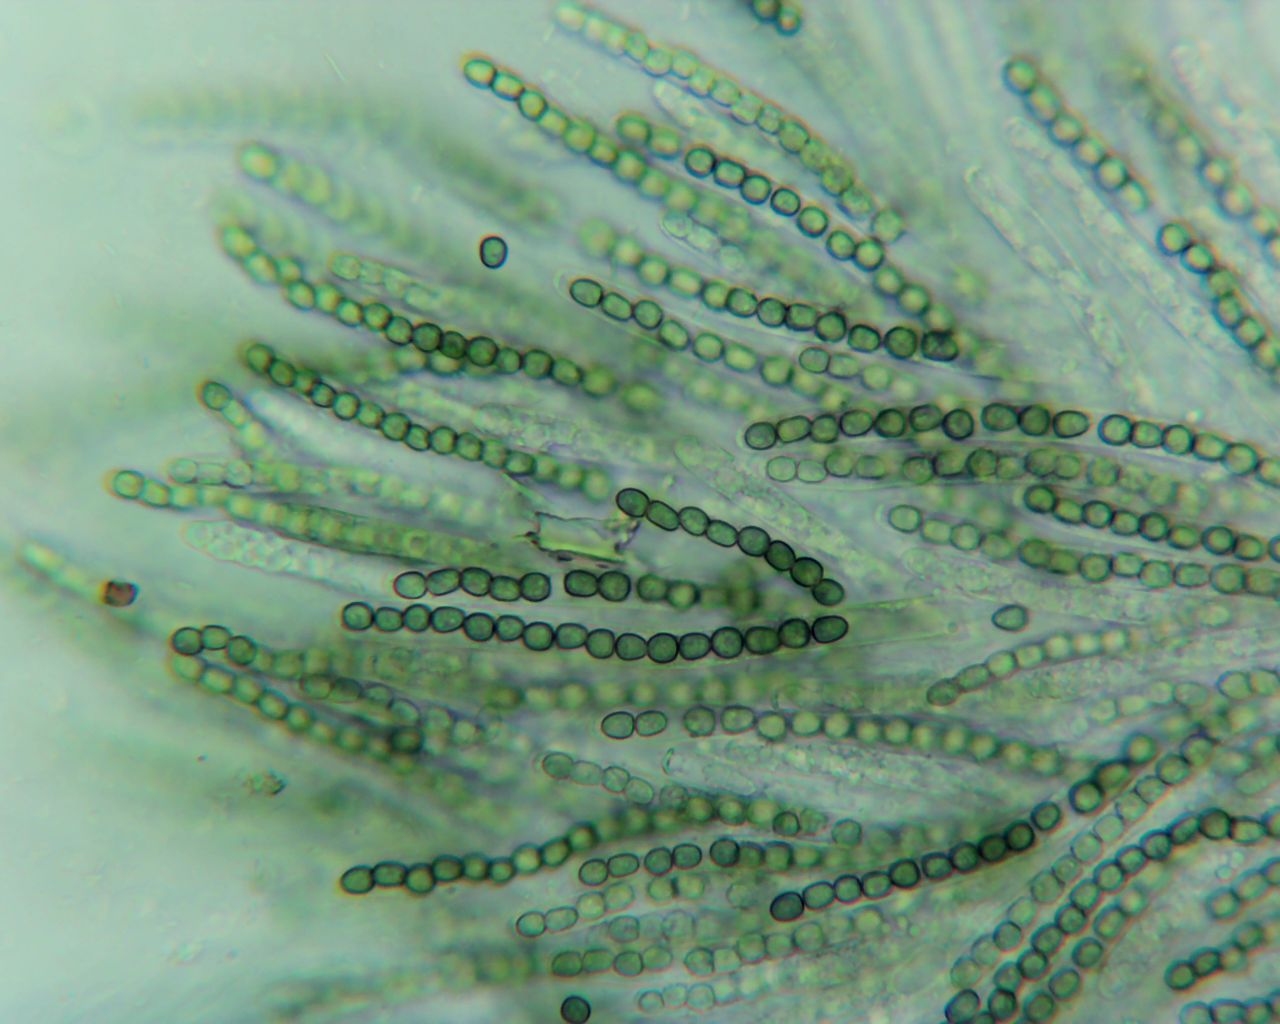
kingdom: Fungi
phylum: Ascomycota
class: Sordariomycetes
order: Hypocreales
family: Hypocreaceae
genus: Trichoderma
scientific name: Trichoderma strictipile
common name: grønprikket kødkerne
